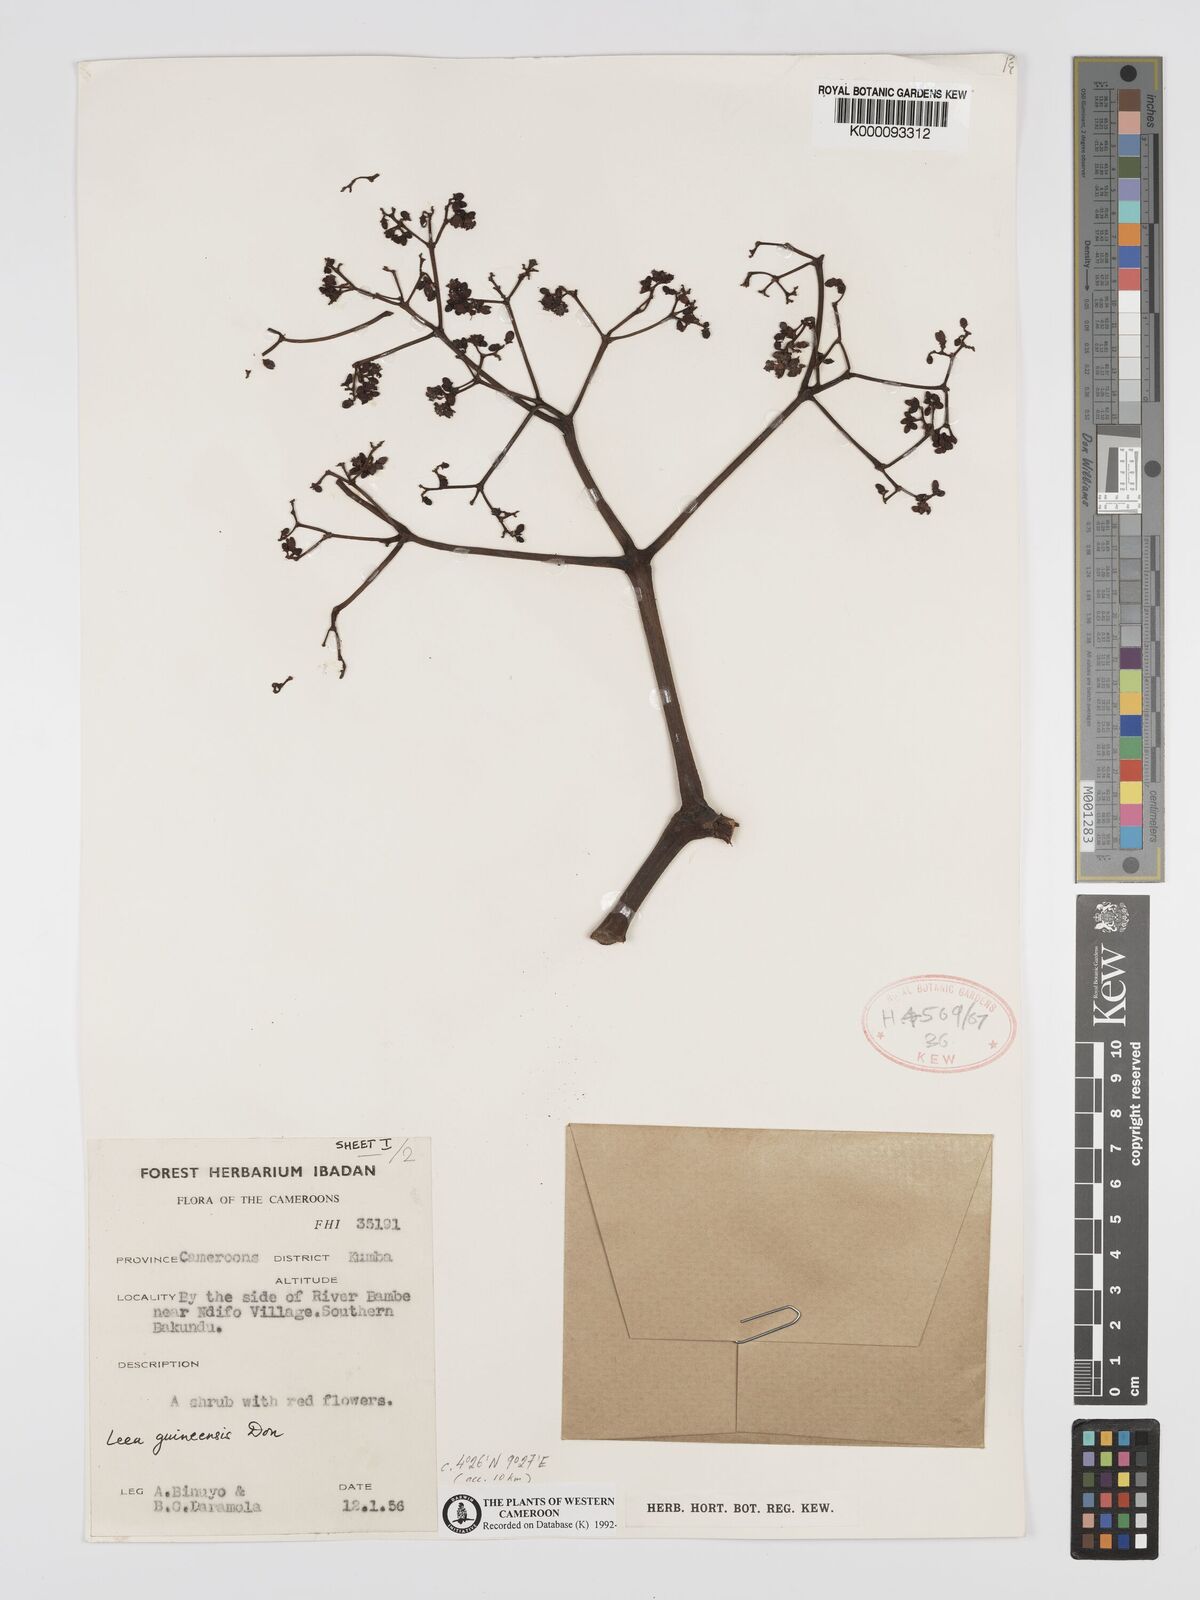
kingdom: Plantae
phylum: Tracheophyta
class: Magnoliopsida
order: Vitales
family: Vitaceae
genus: Leea
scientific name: Leea guineensis
